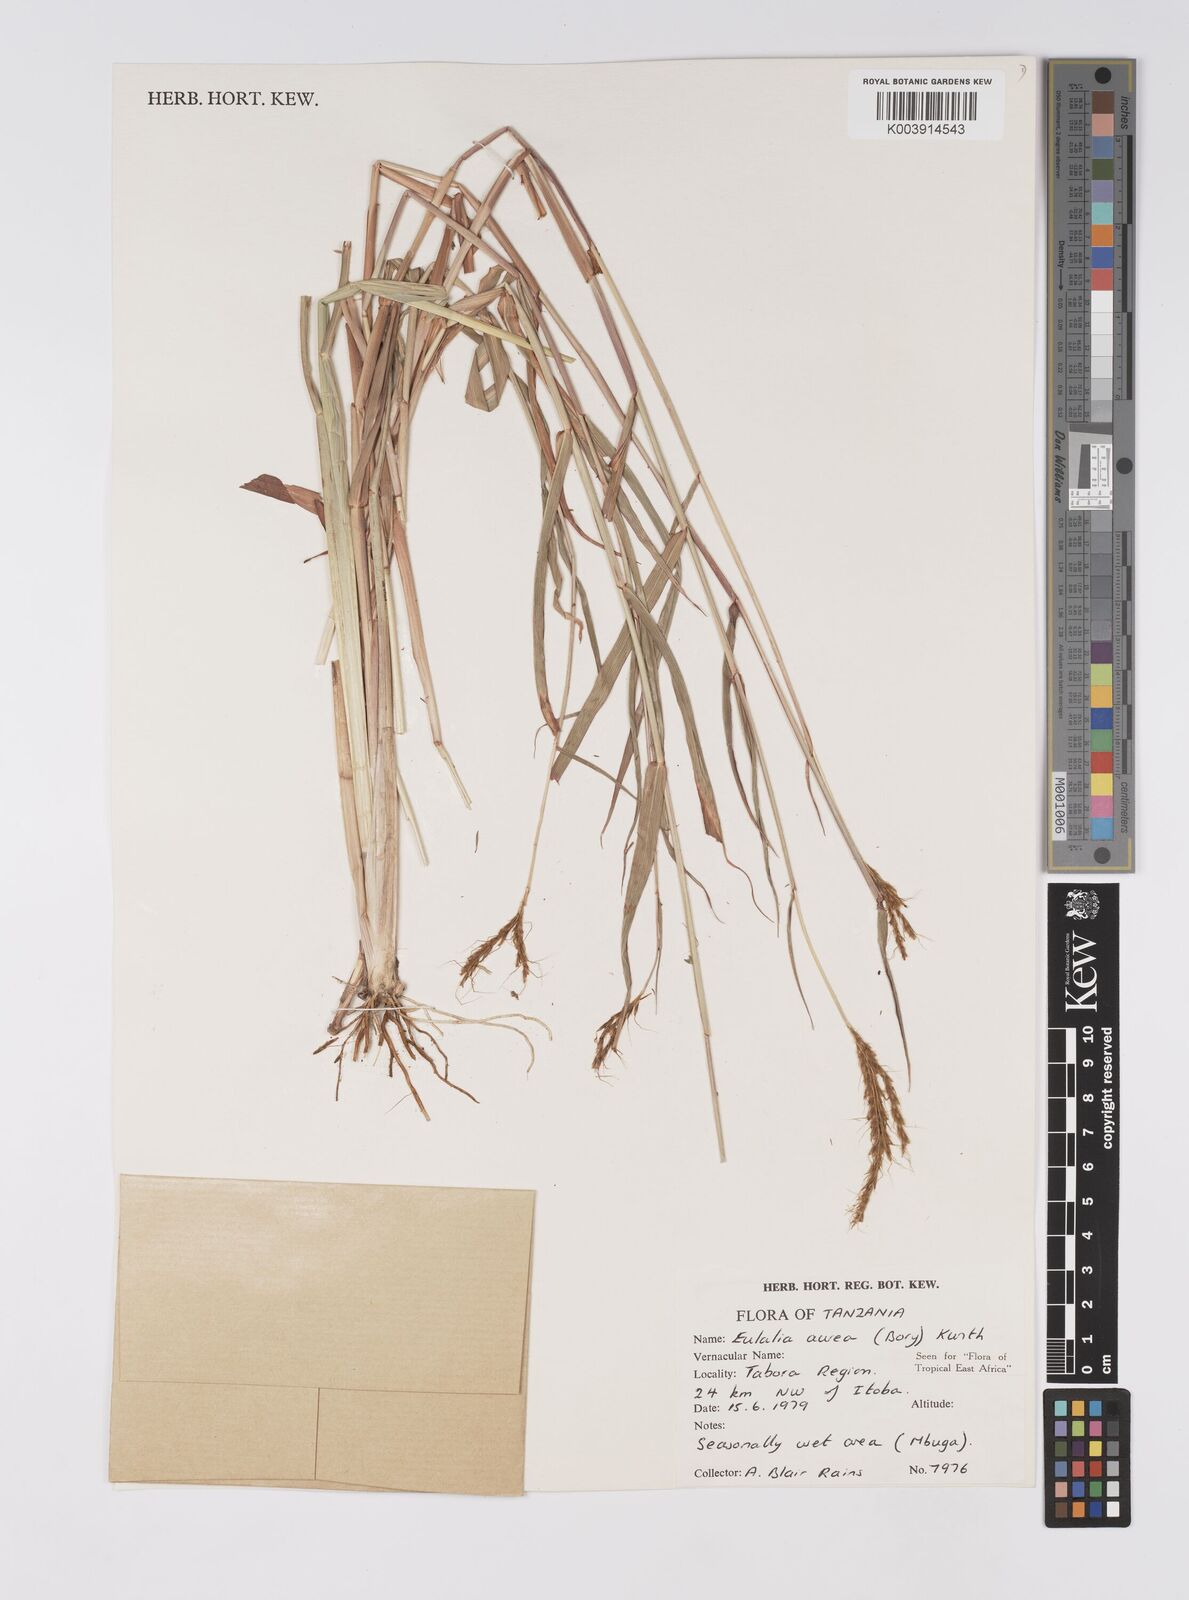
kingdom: Plantae
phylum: Tracheophyta
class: Liliopsida
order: Poales
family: Poaceae
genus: Eulalia
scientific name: Eulalia aurea
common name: Silky browntop
